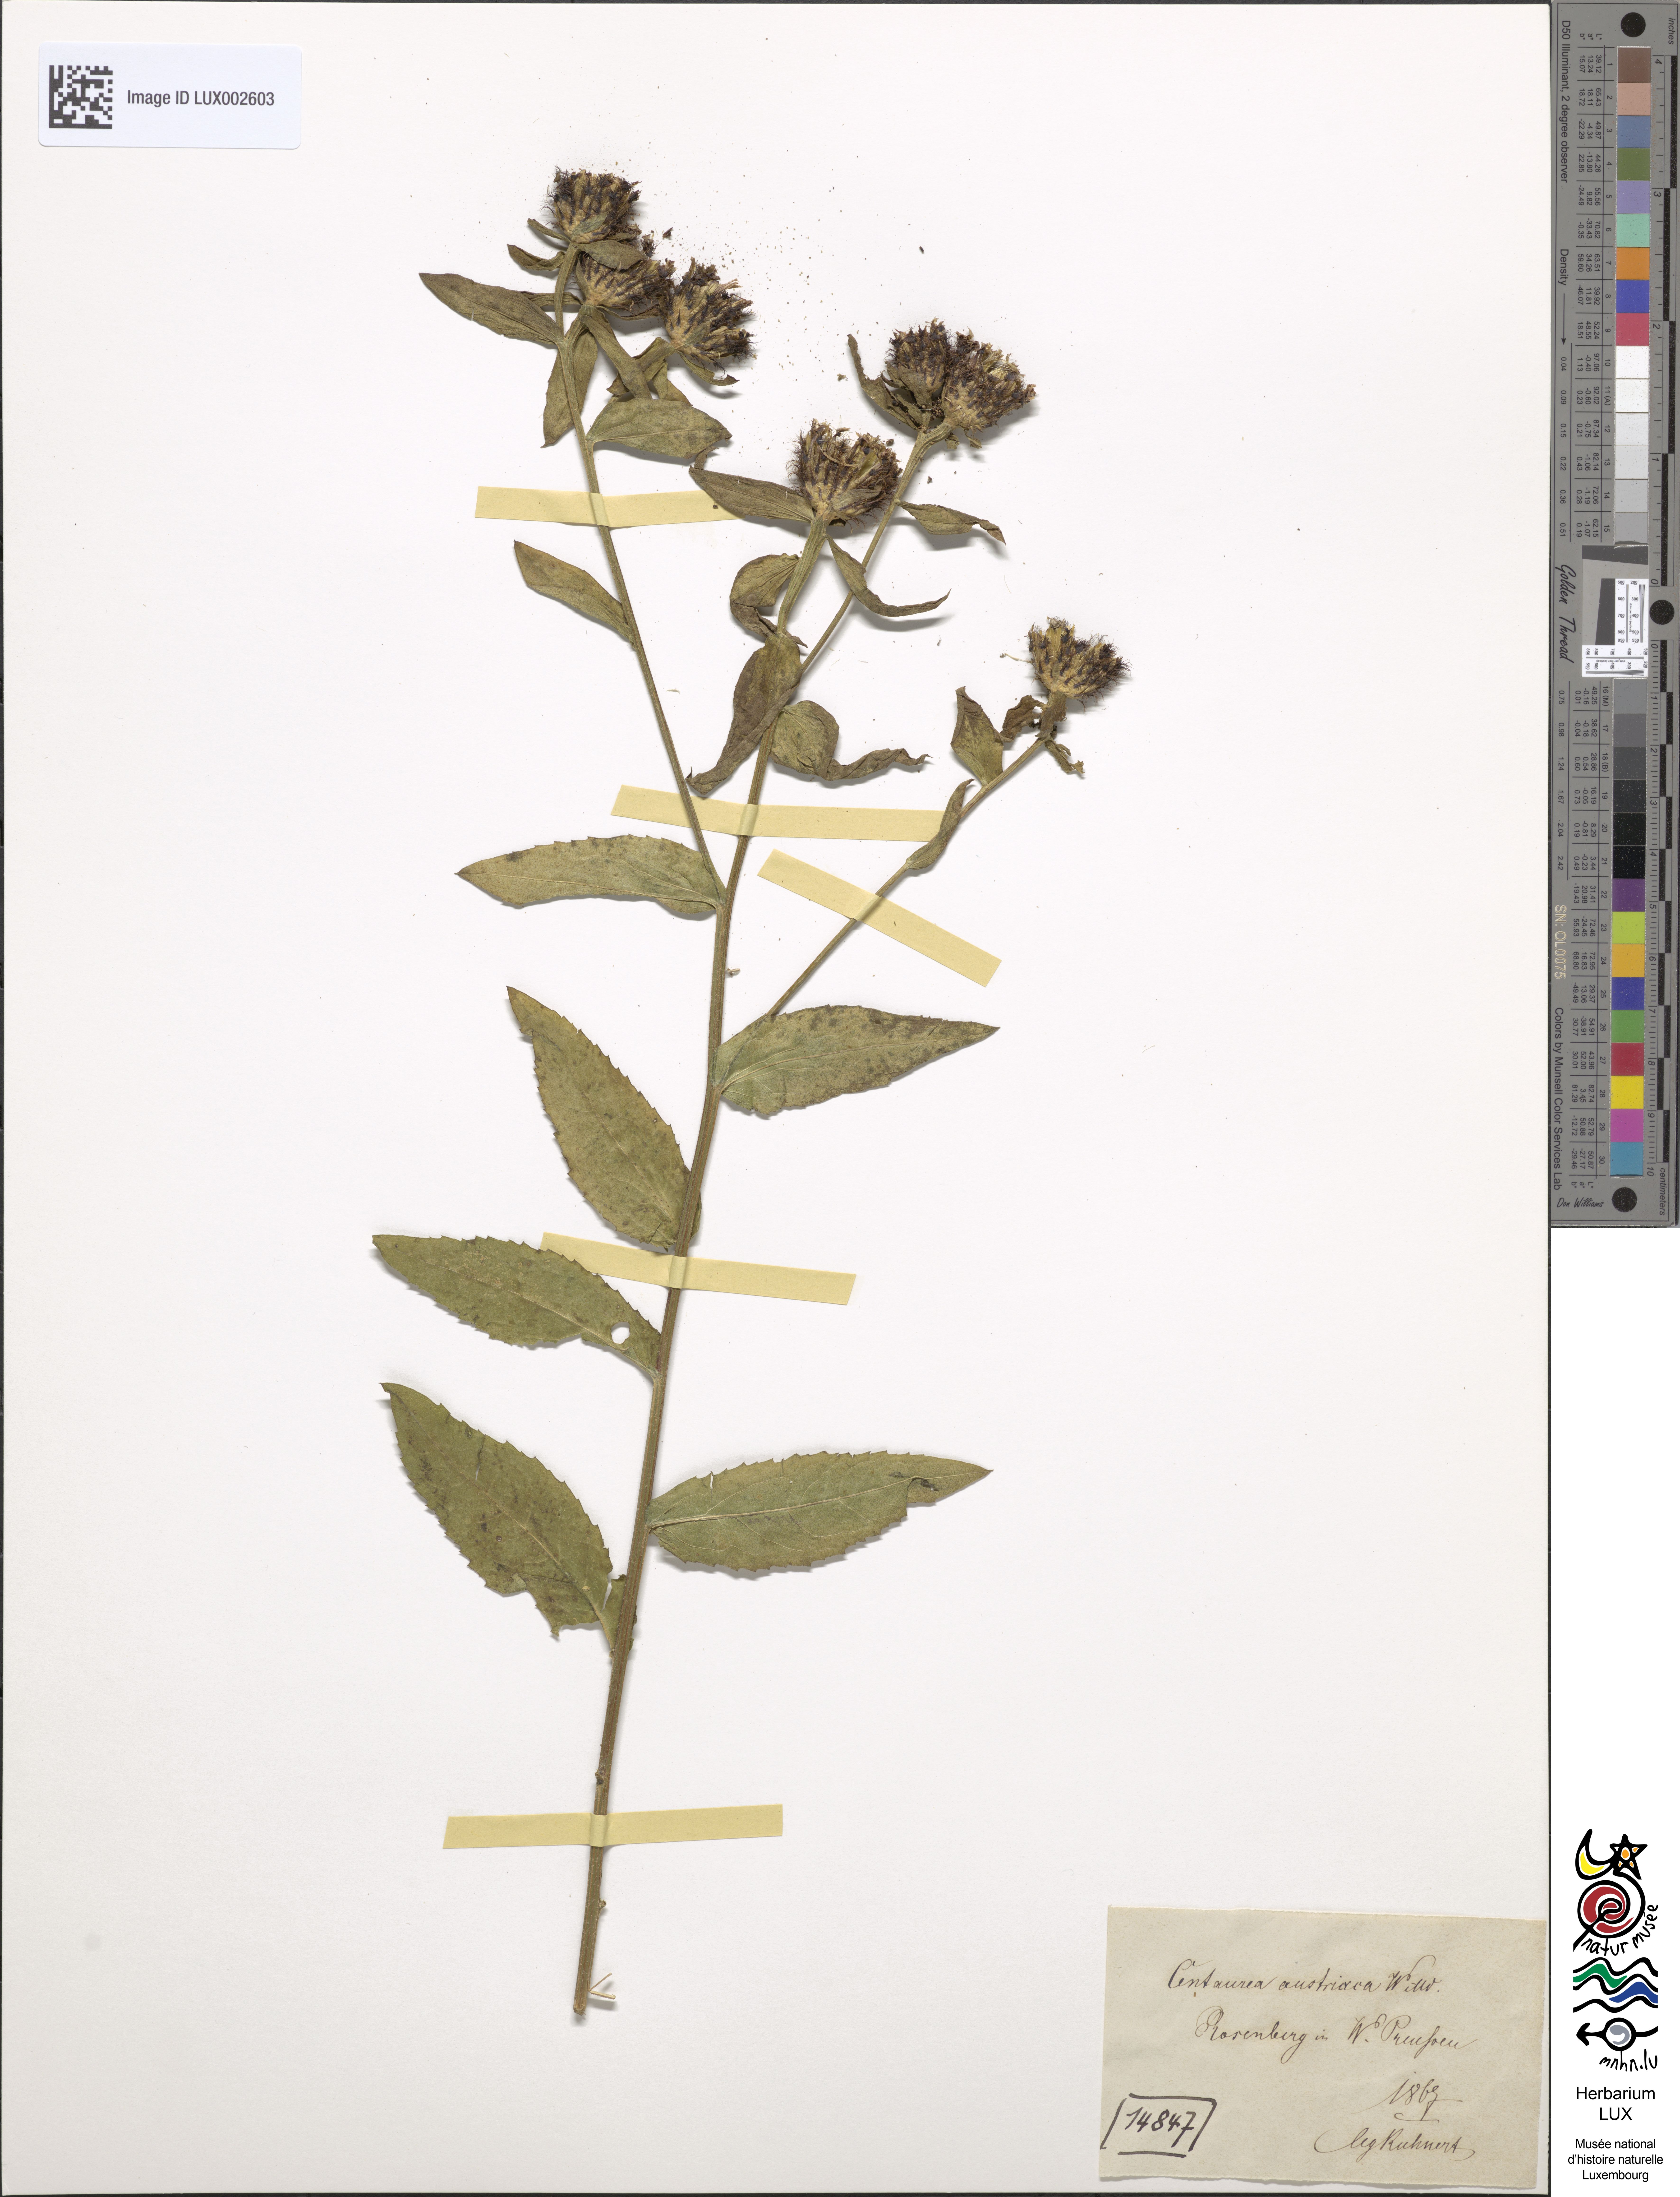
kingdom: Plantae
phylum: Tracheophyta
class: Magnoliopsida
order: Asterales
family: Asteraceae
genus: Centaurea
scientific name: Centaurea phrygia
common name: Wig knapweed
